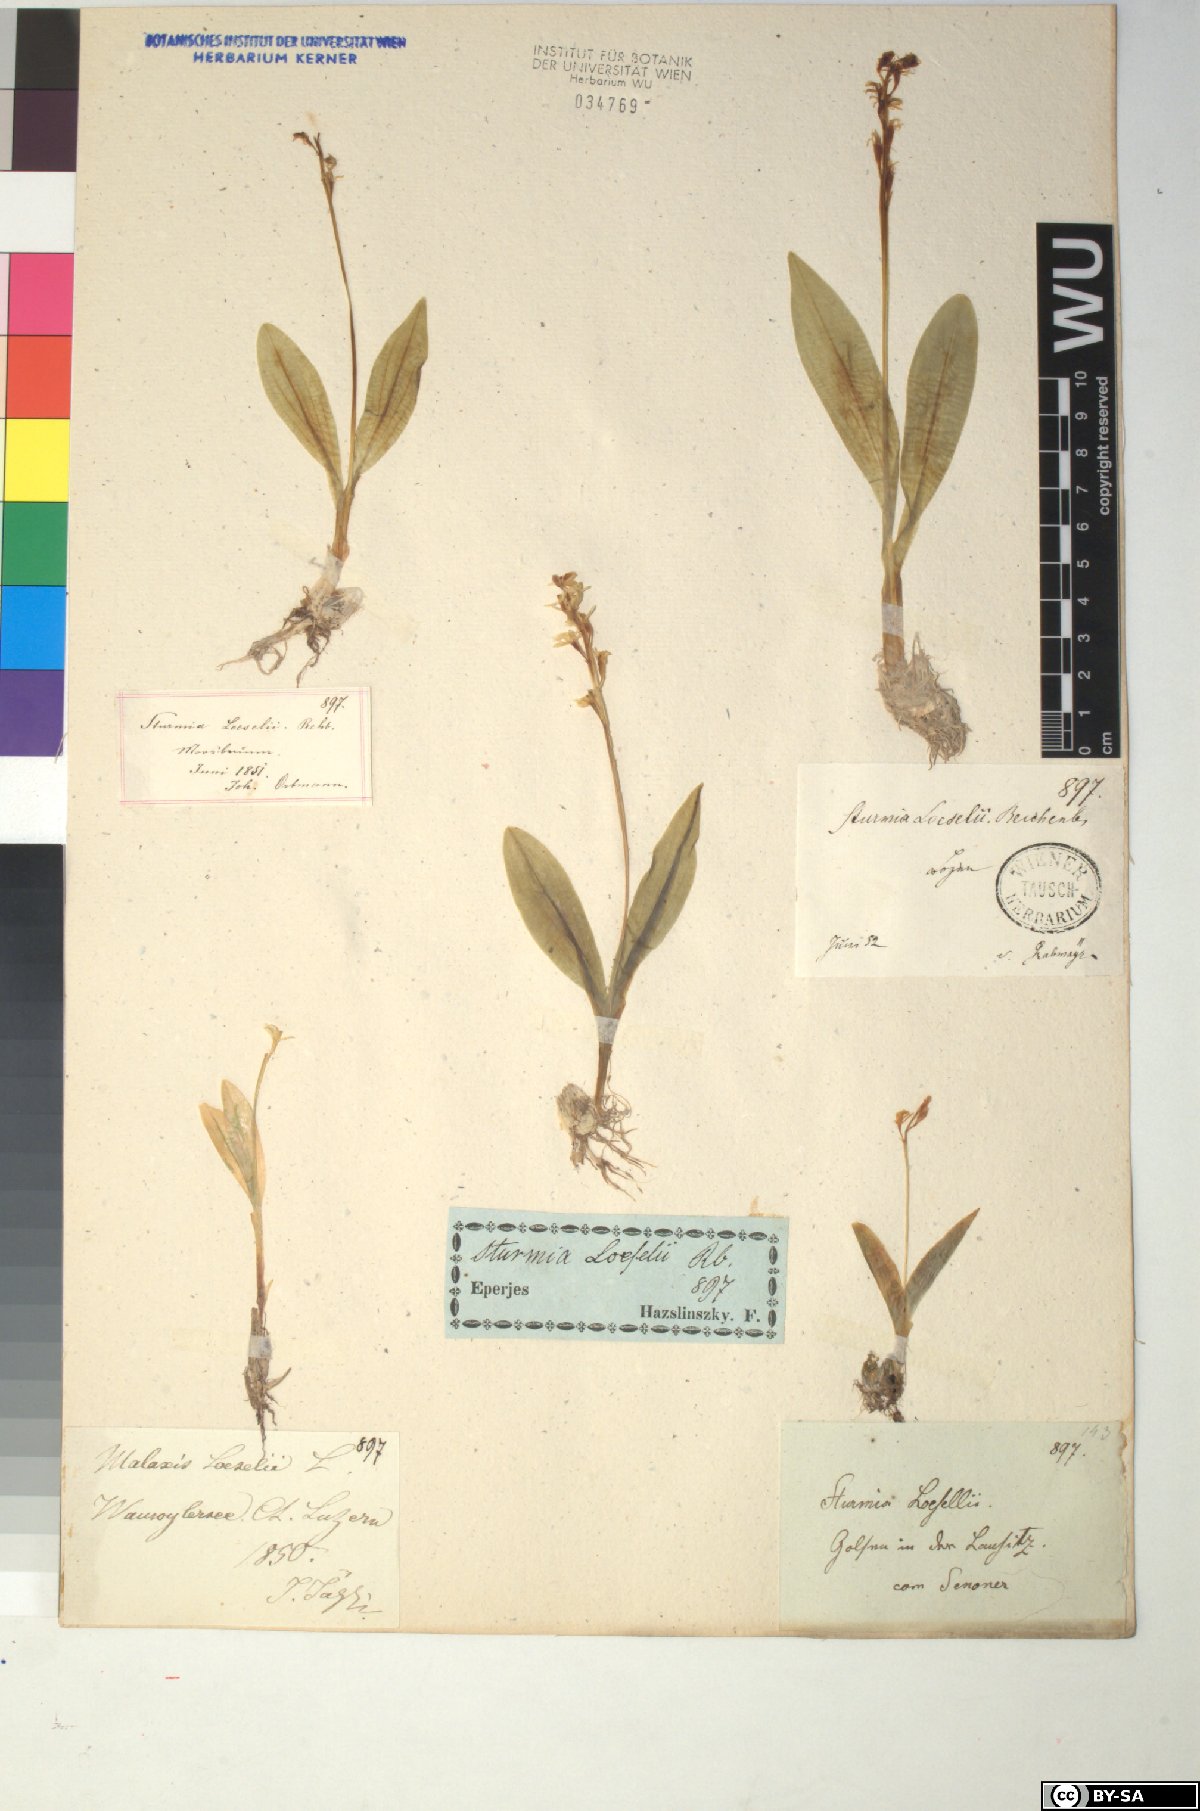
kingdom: Animalia
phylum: Arthropoda
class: Insecta
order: Coleoptera
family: Curculionidae
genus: Liparis
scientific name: Liparis loeselii
